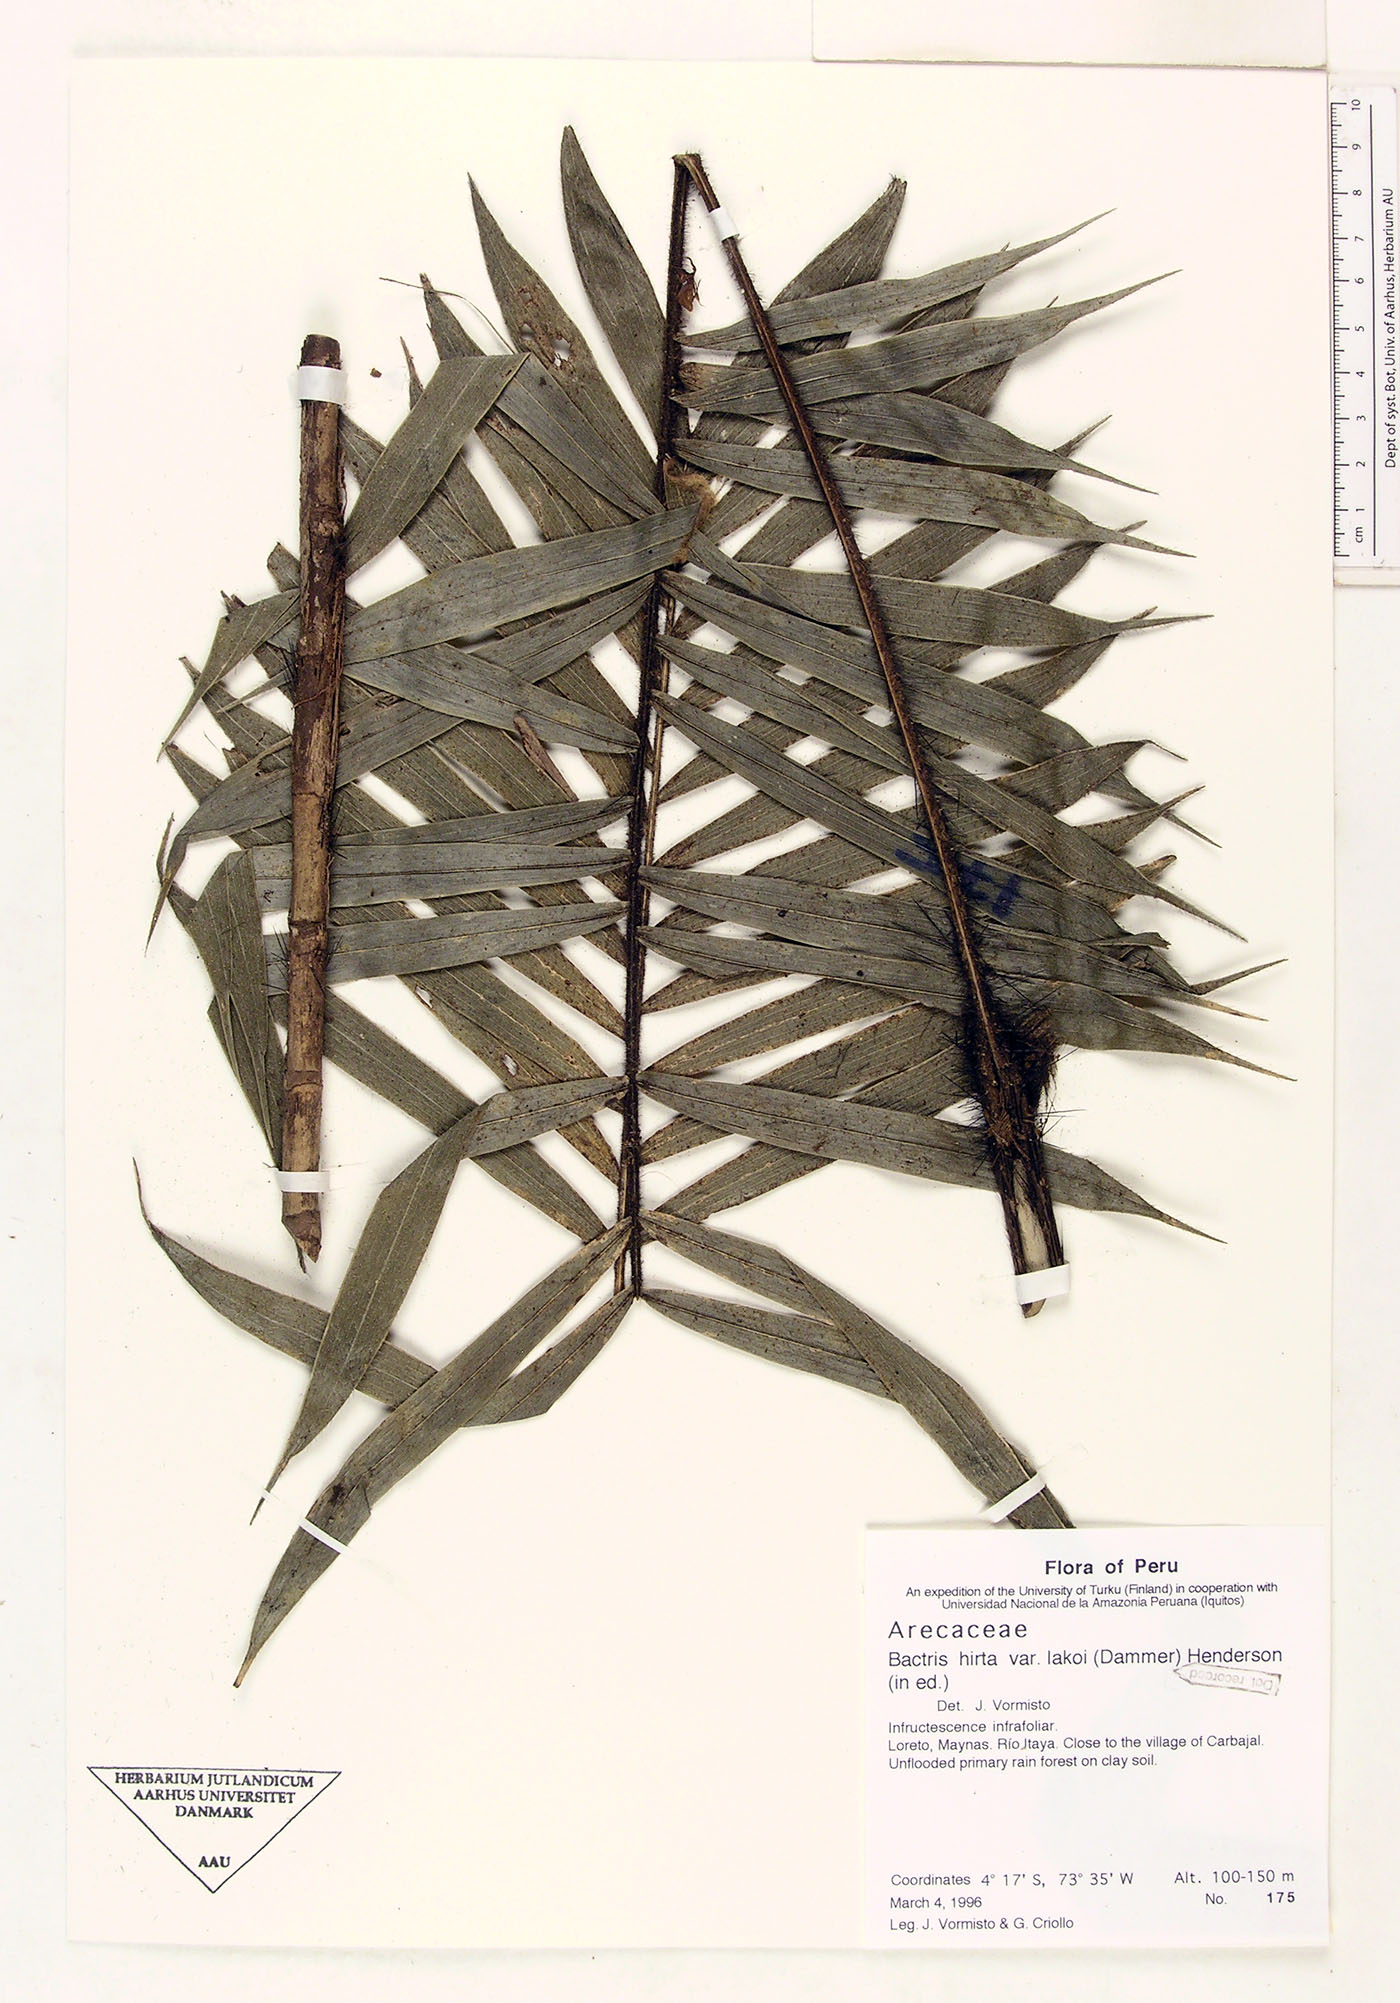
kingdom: Plantae
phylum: Tracheophyta
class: Liliopsida
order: Arecales
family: Arecaceae
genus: Bactris
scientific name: Bactris hirta
